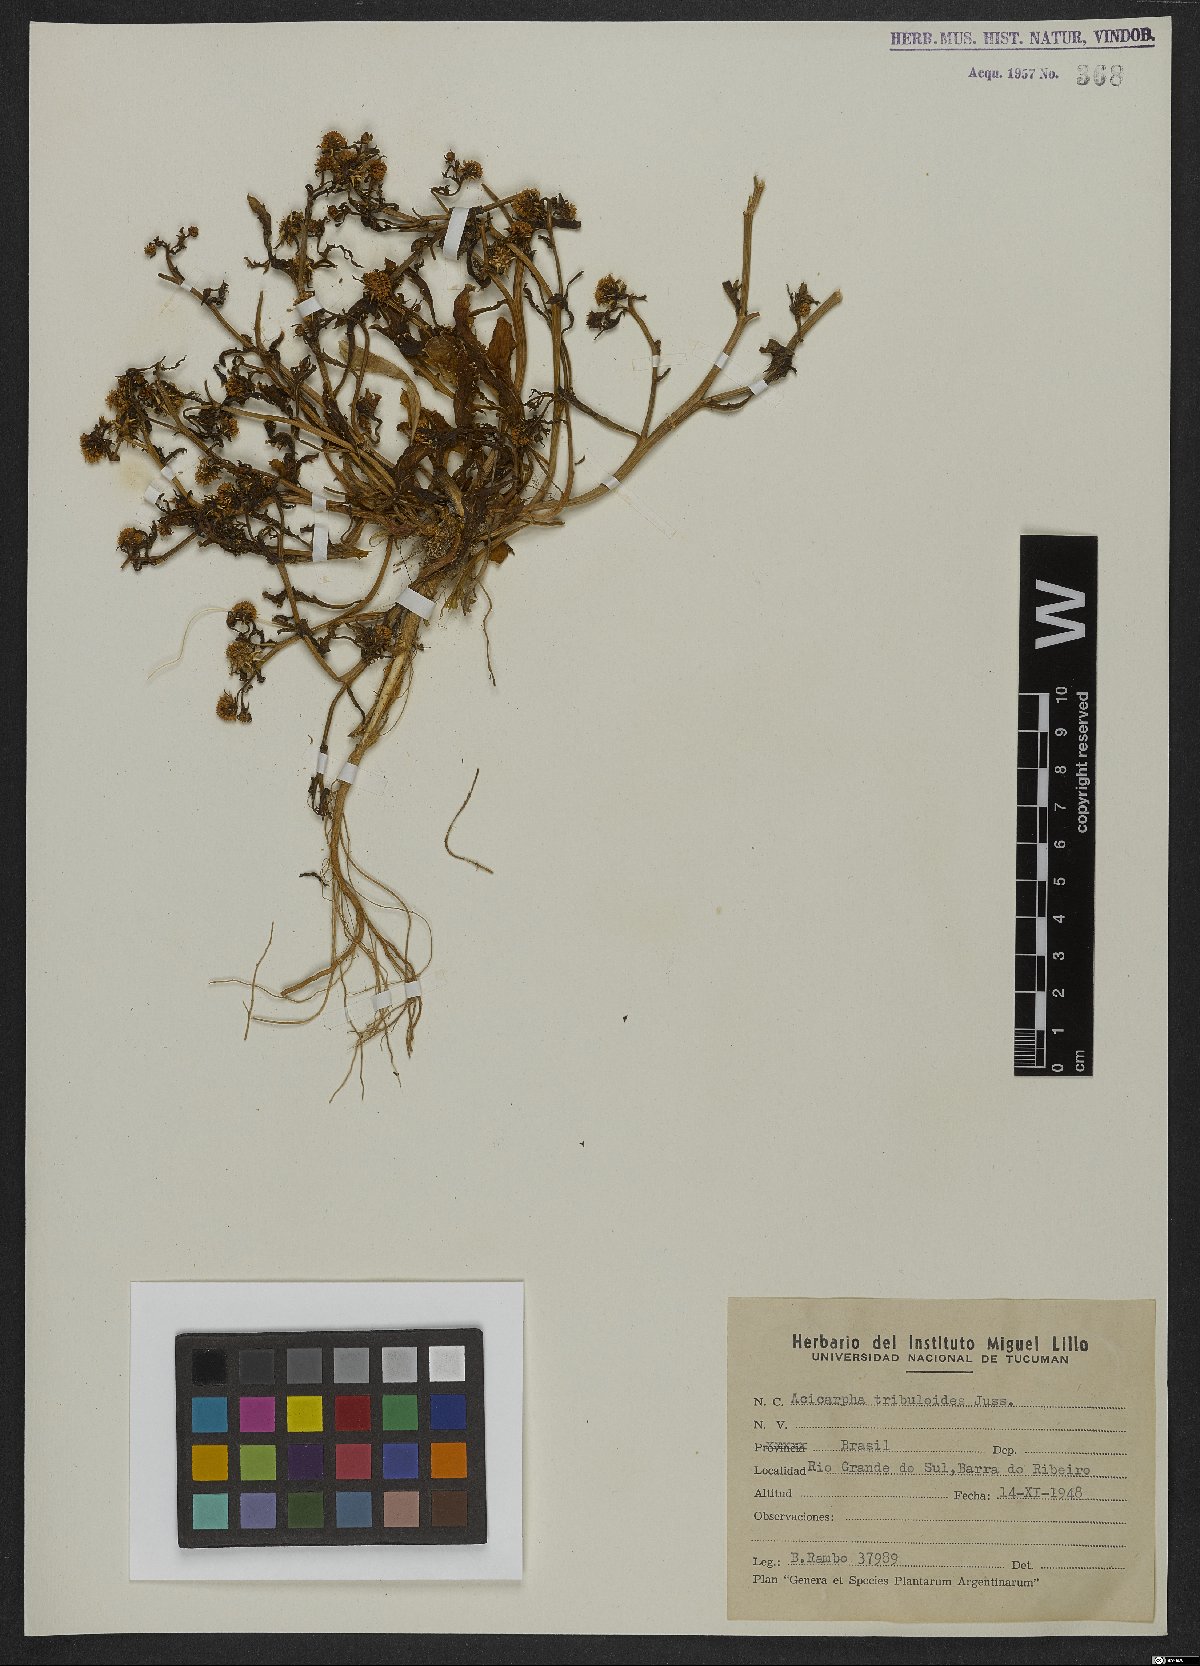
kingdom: Plantae
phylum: Tracheophyta
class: Magnoliopsida
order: Asterales
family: Calyceraceae
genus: Acicarpha
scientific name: Acicarpha tribuloides
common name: Madam gorgon
